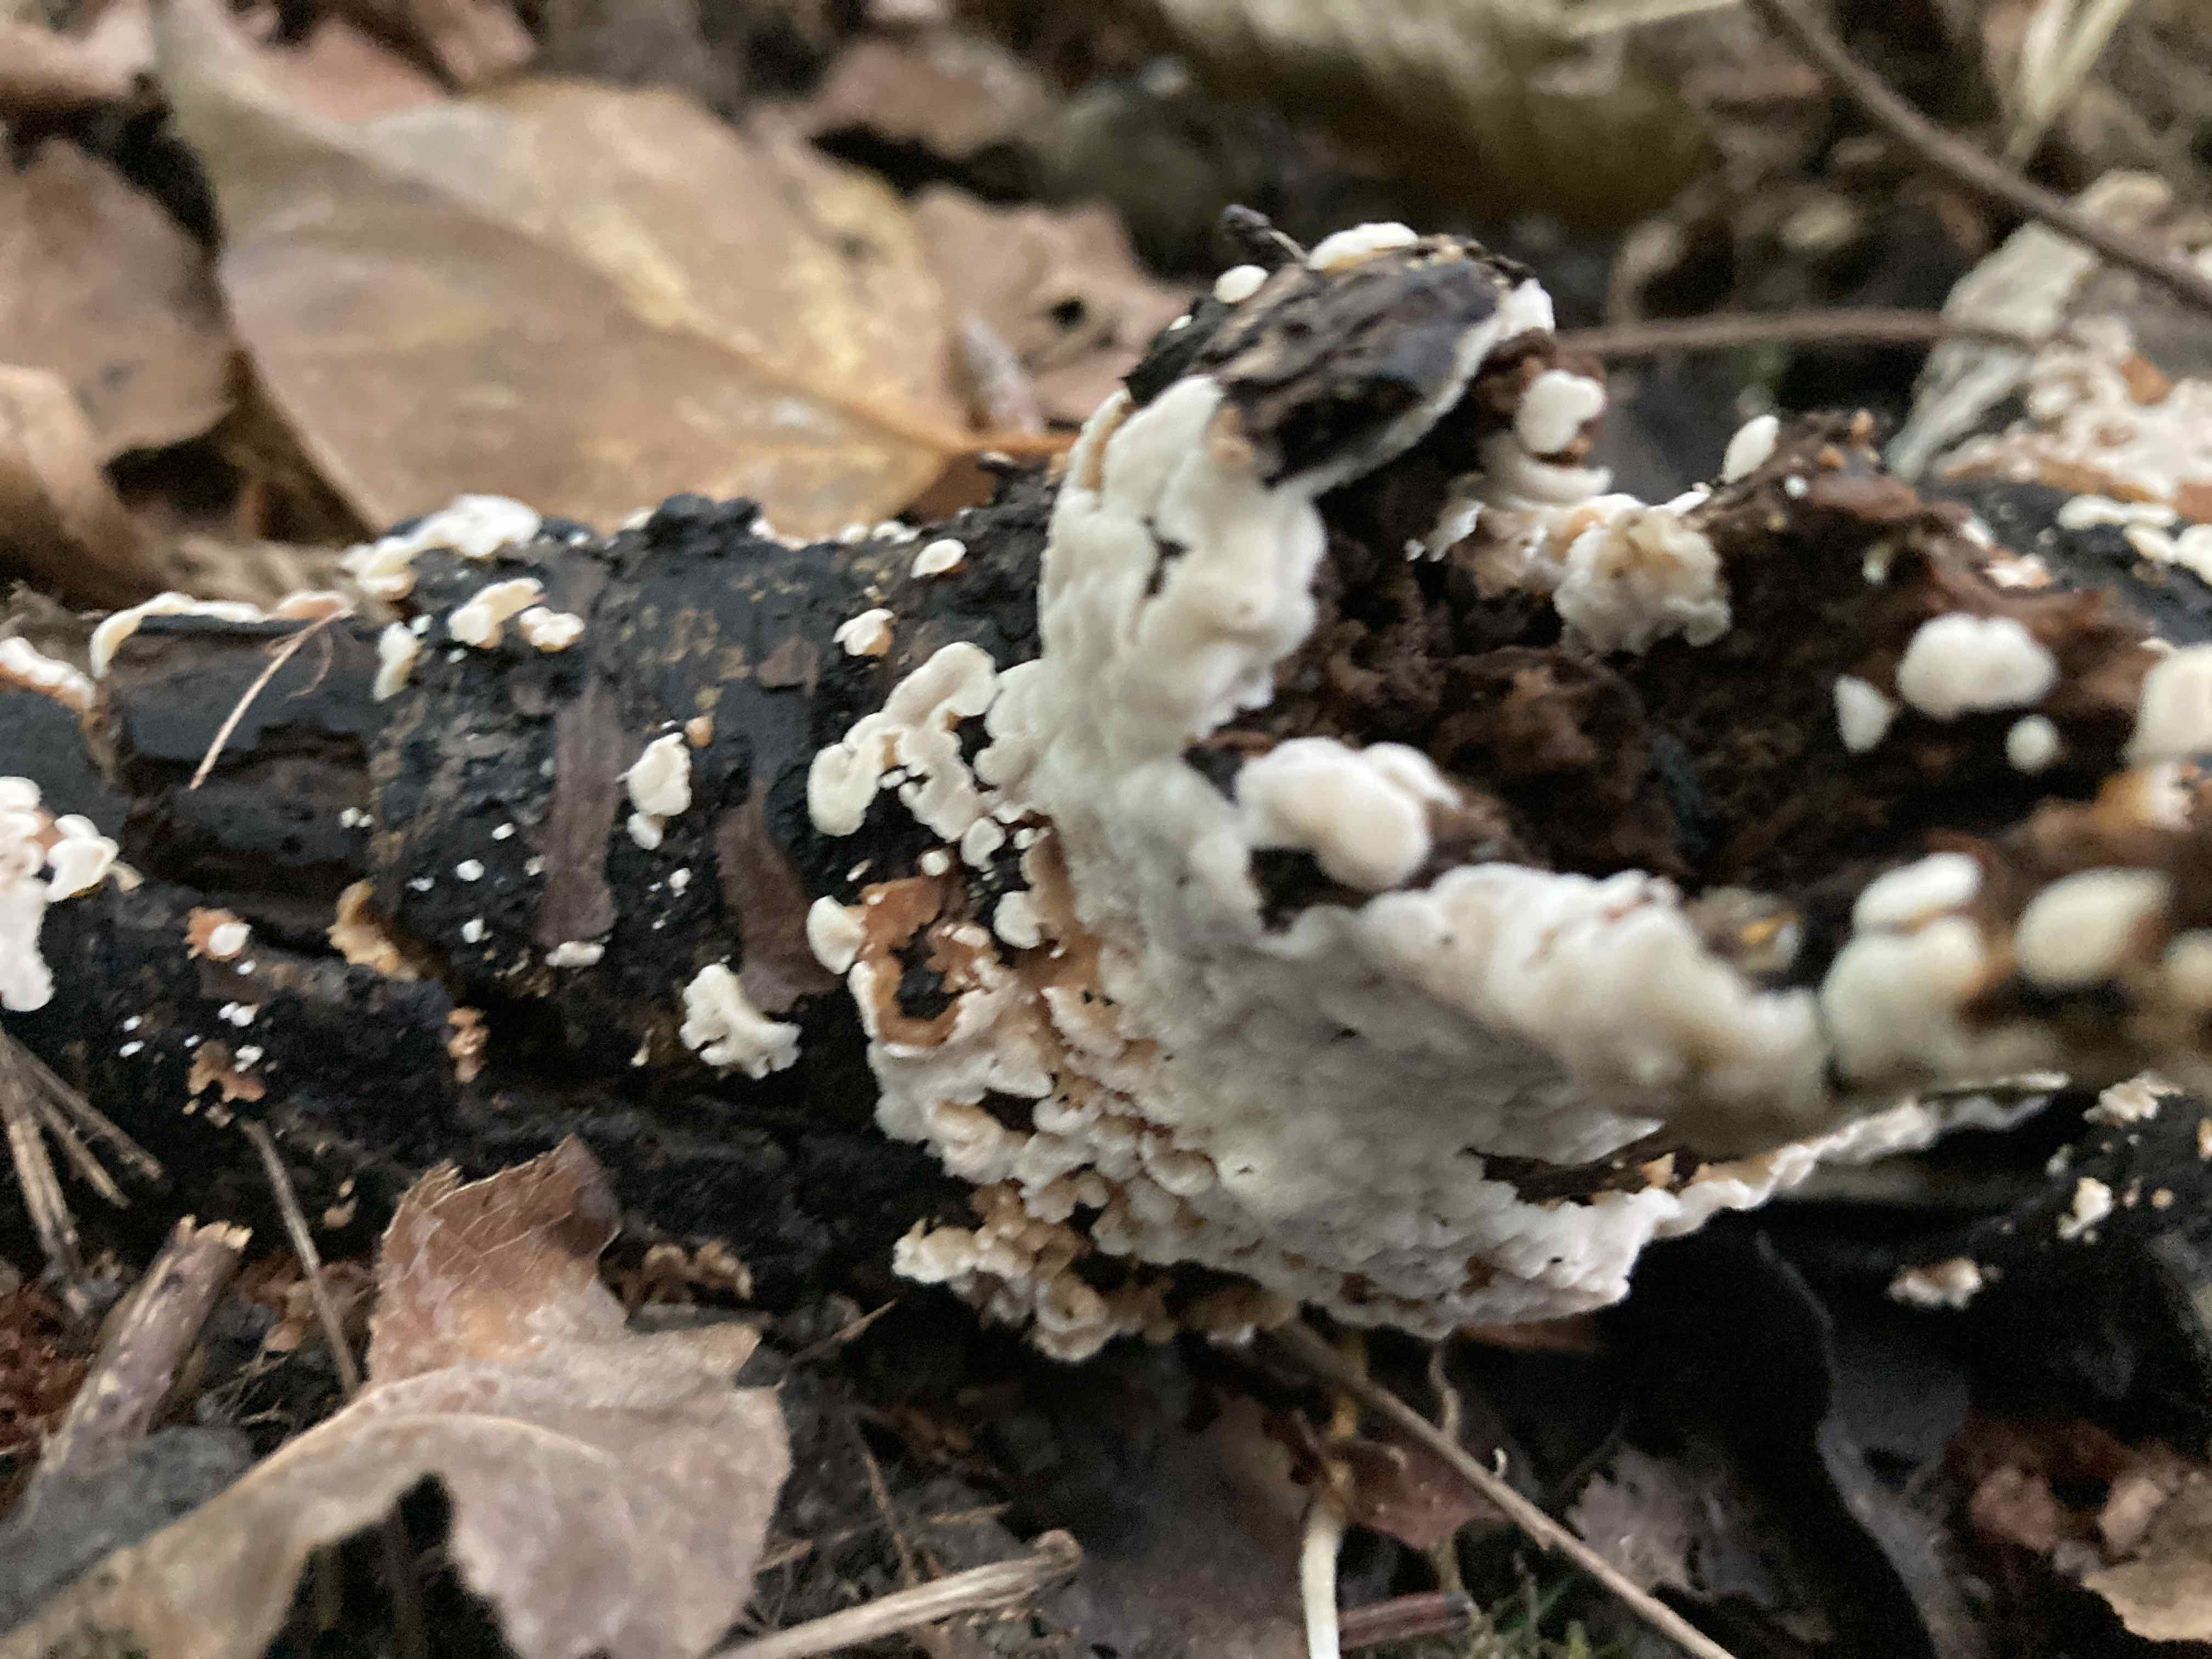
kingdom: Fungi
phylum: Basidiomycota
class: Agaricomycetes
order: Polyporales
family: Meripilaceae
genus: Rigidoporus
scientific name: Rigidoporus sanguinolentus
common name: blod-skorpeporesvamp
